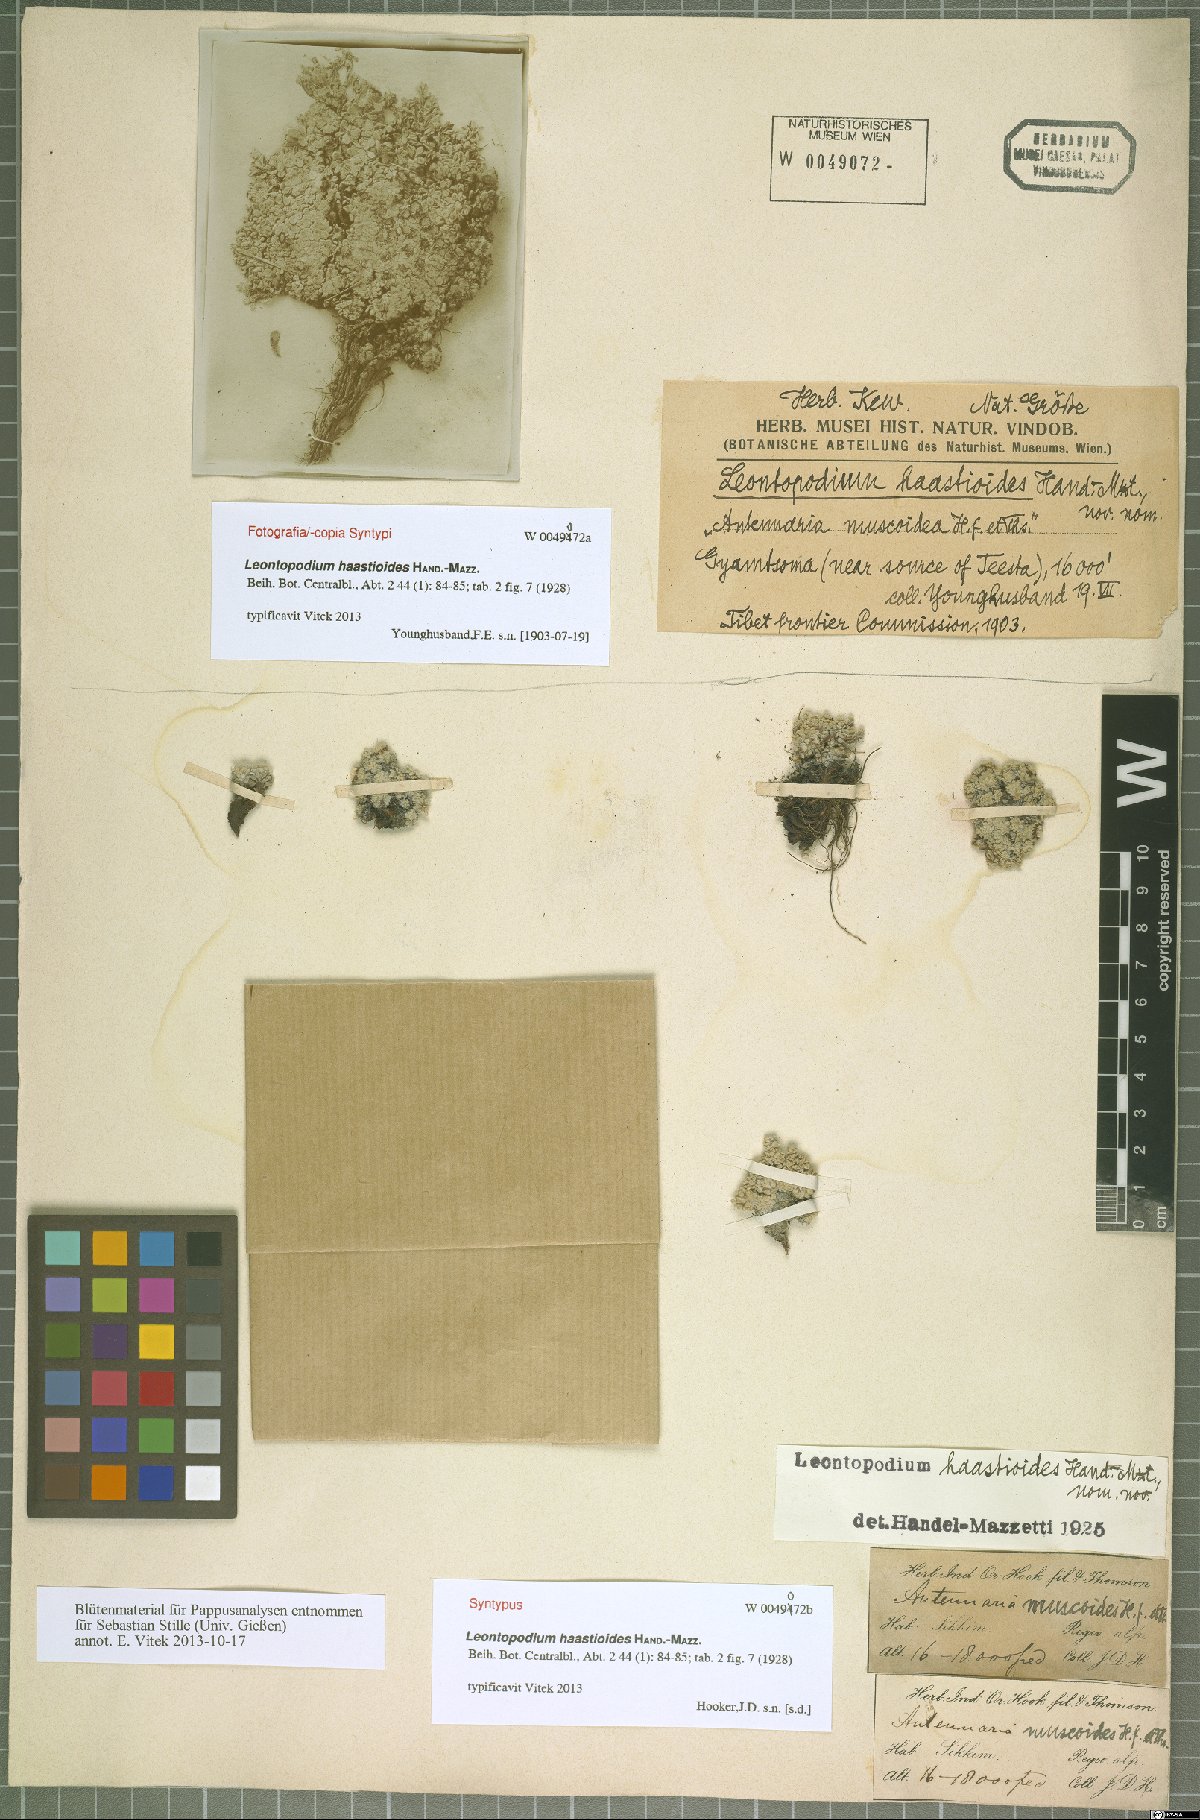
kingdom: Plantae
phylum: Tracheophyta
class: Magnoliopsida
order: Asterales
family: Asteraceae
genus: Leontopodium
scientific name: Leontopodium haastioides
